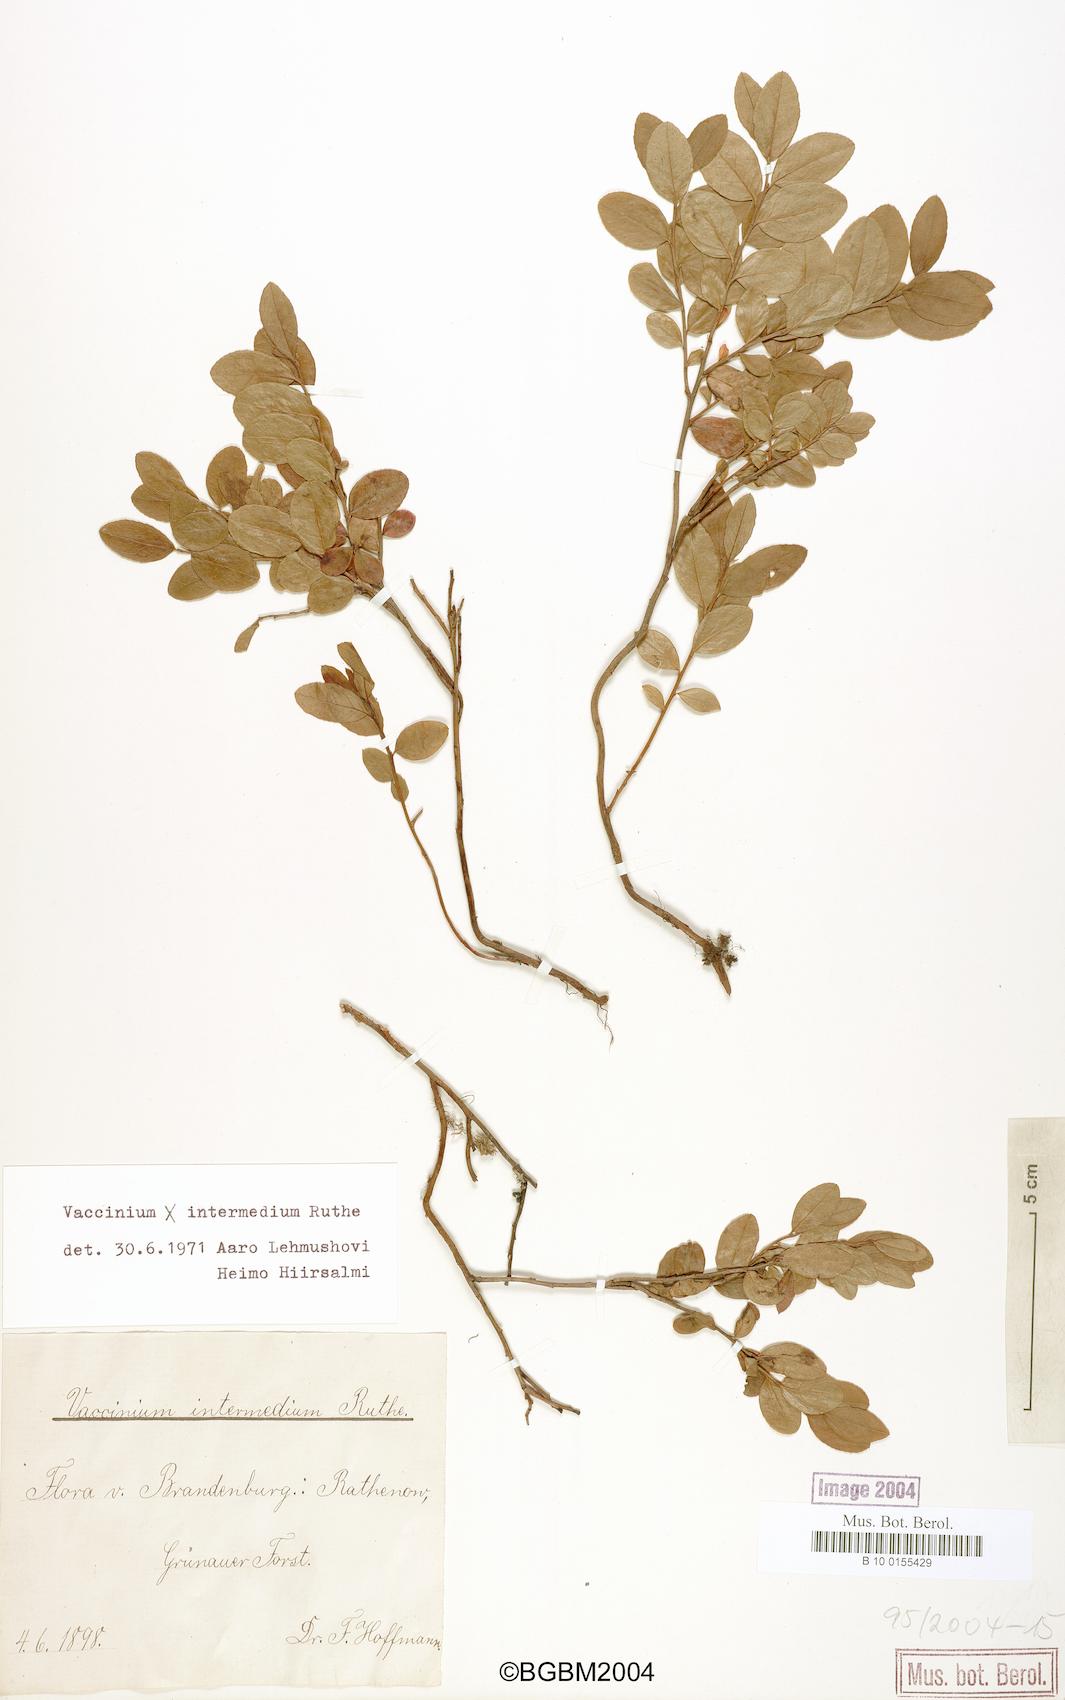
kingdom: Plantae
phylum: Tracheophyta
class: Magnoliopsida
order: Ericales
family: Ericaceae
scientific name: Ericaceae
